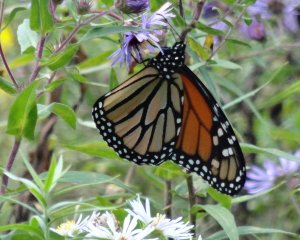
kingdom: Animalia
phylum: Arthropoda
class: Insecta
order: Lepidoptera
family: Nymphalidae
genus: Danaus
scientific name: Danaus plexippus
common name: Monarch
